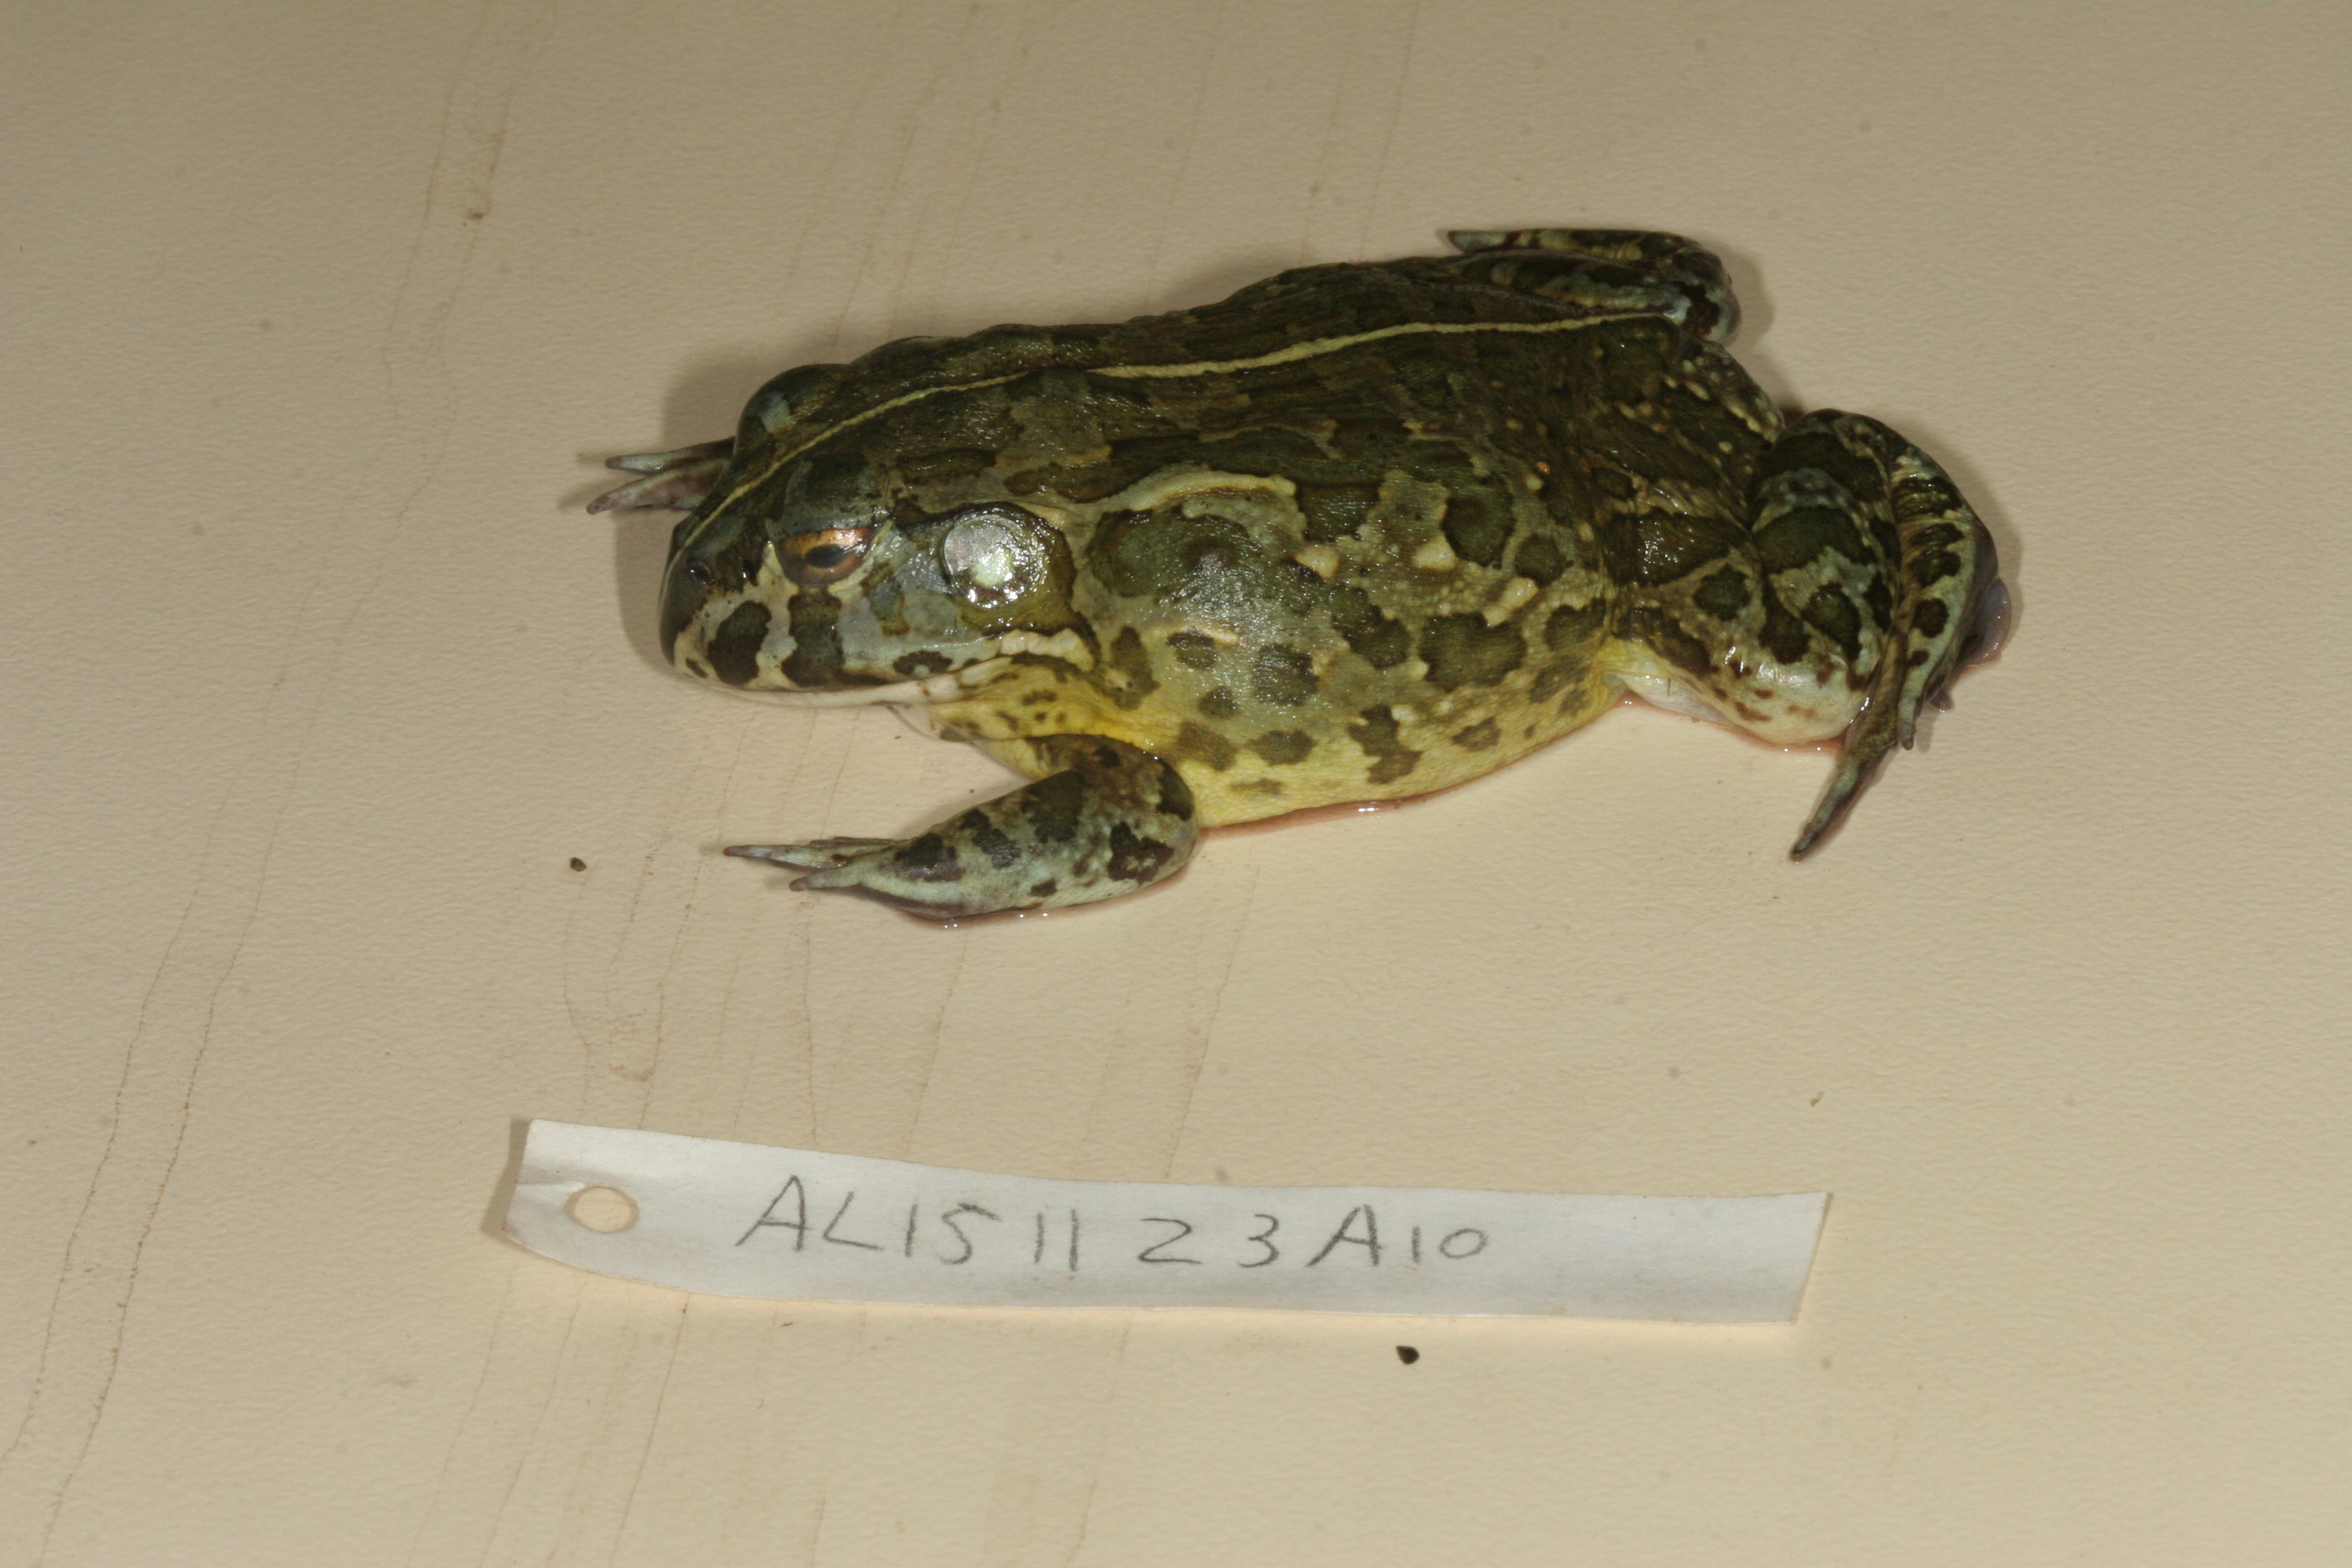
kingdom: Animalia
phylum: Chordata
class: Amphibia
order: Anura
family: Pyxicephalidae
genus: Pyxicephalus
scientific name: Pyxicephalus edulis
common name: Peter's bullfrog
